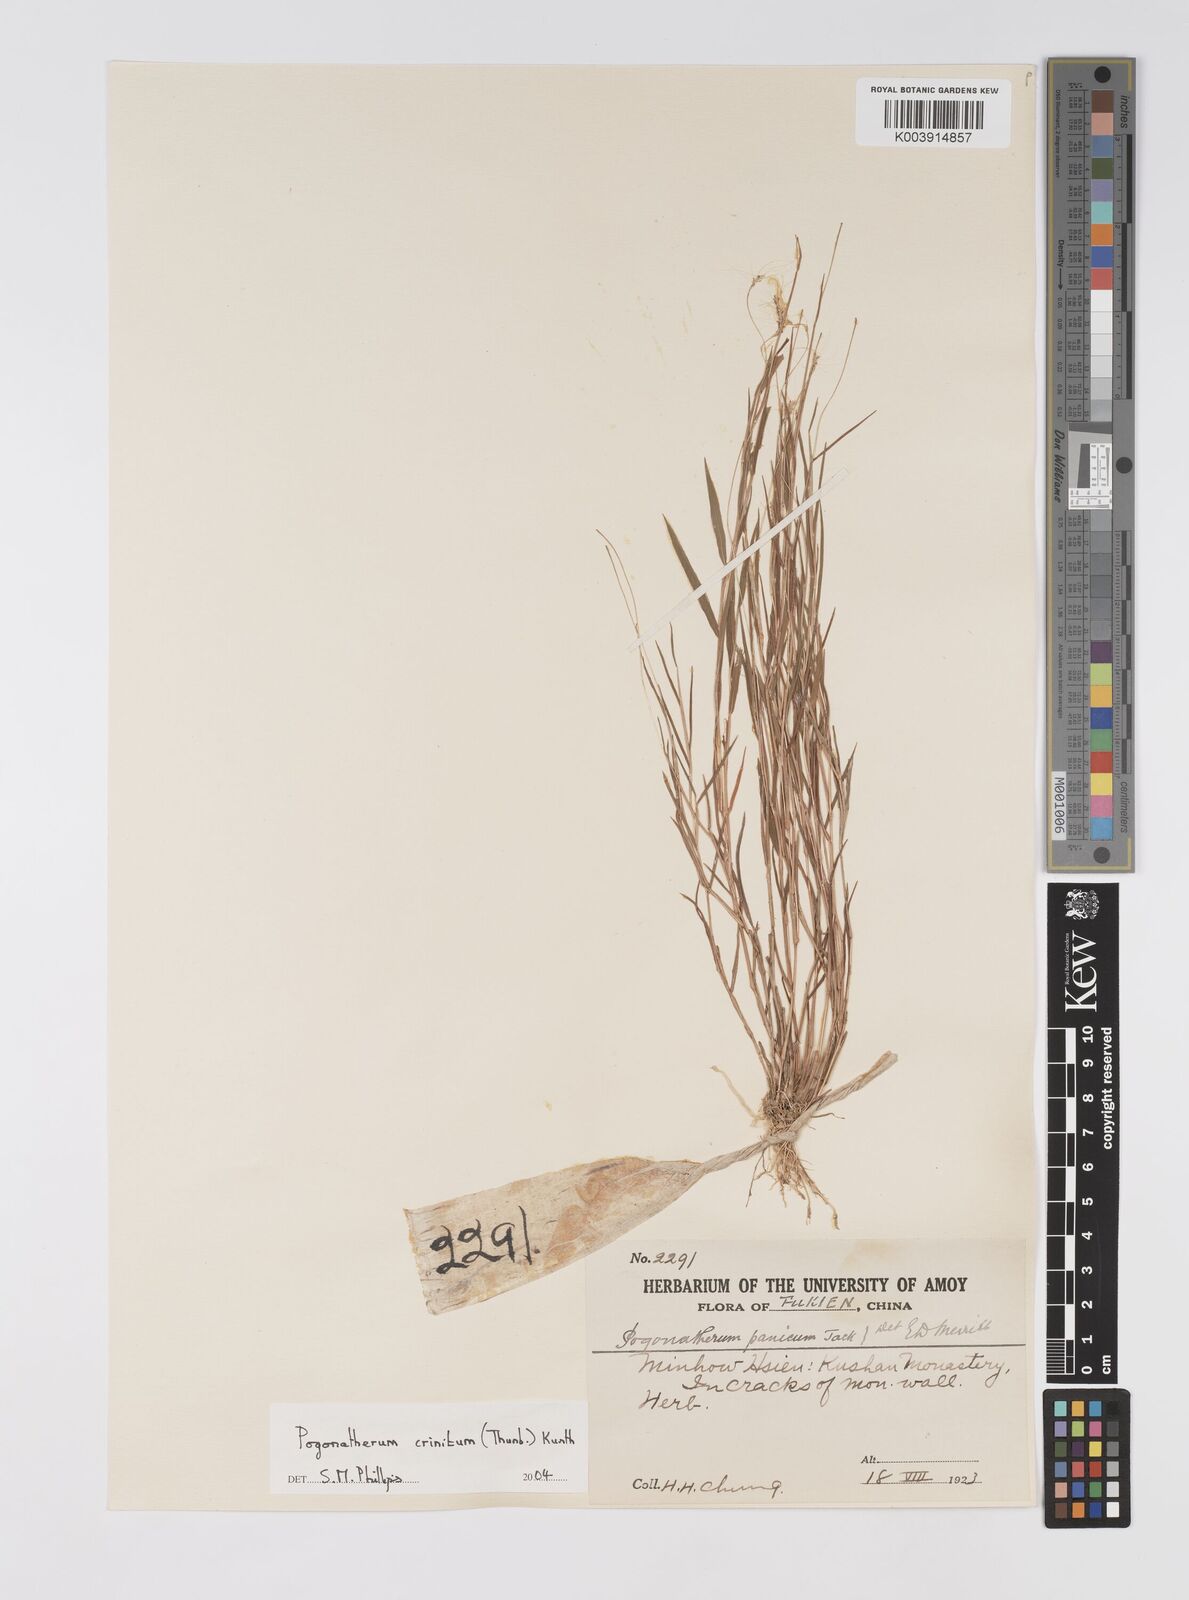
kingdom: Plantae
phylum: Tracheophyta
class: Liliopsida
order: Poales
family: Poaceae
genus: Pogonatherum
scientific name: Pogonatherum crinitum
